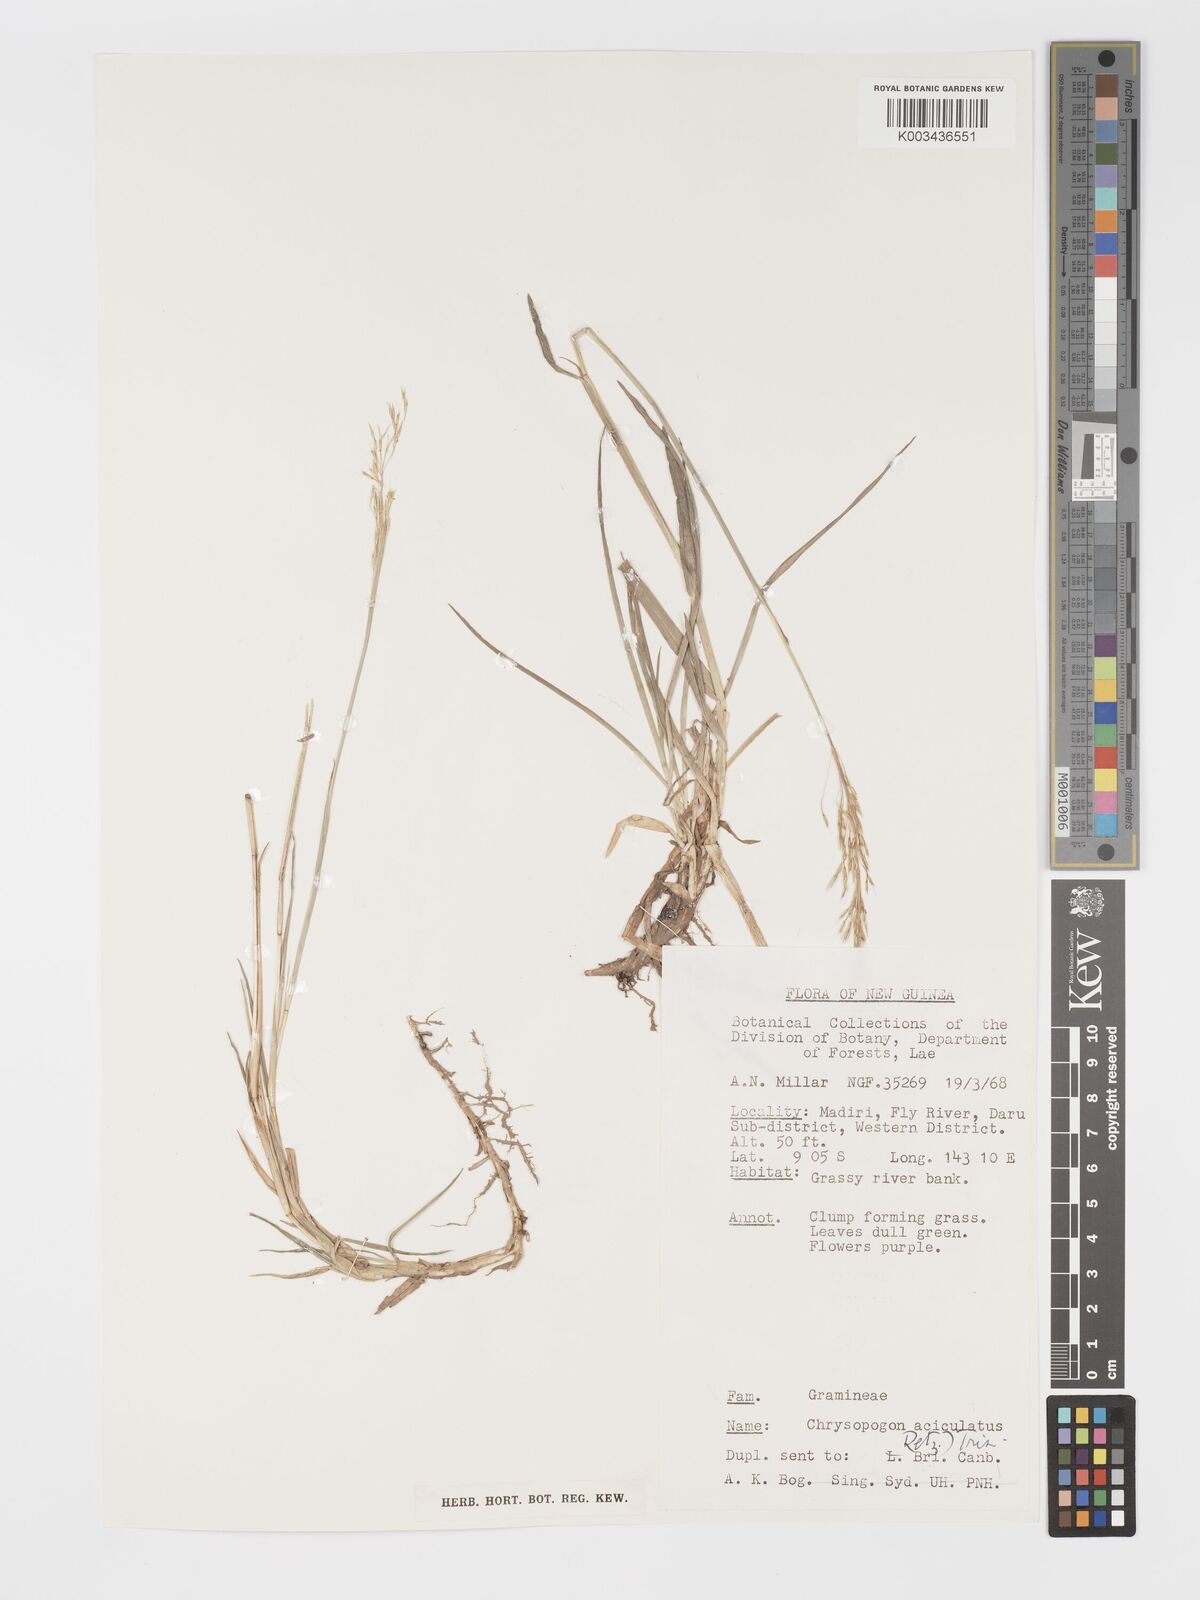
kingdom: Plantae
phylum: Tracheophyta
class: Liliopsida
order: Poales
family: Poaceae
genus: Chrysopogon
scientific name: Chrysopogon aciculatus
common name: Pilipiliula
